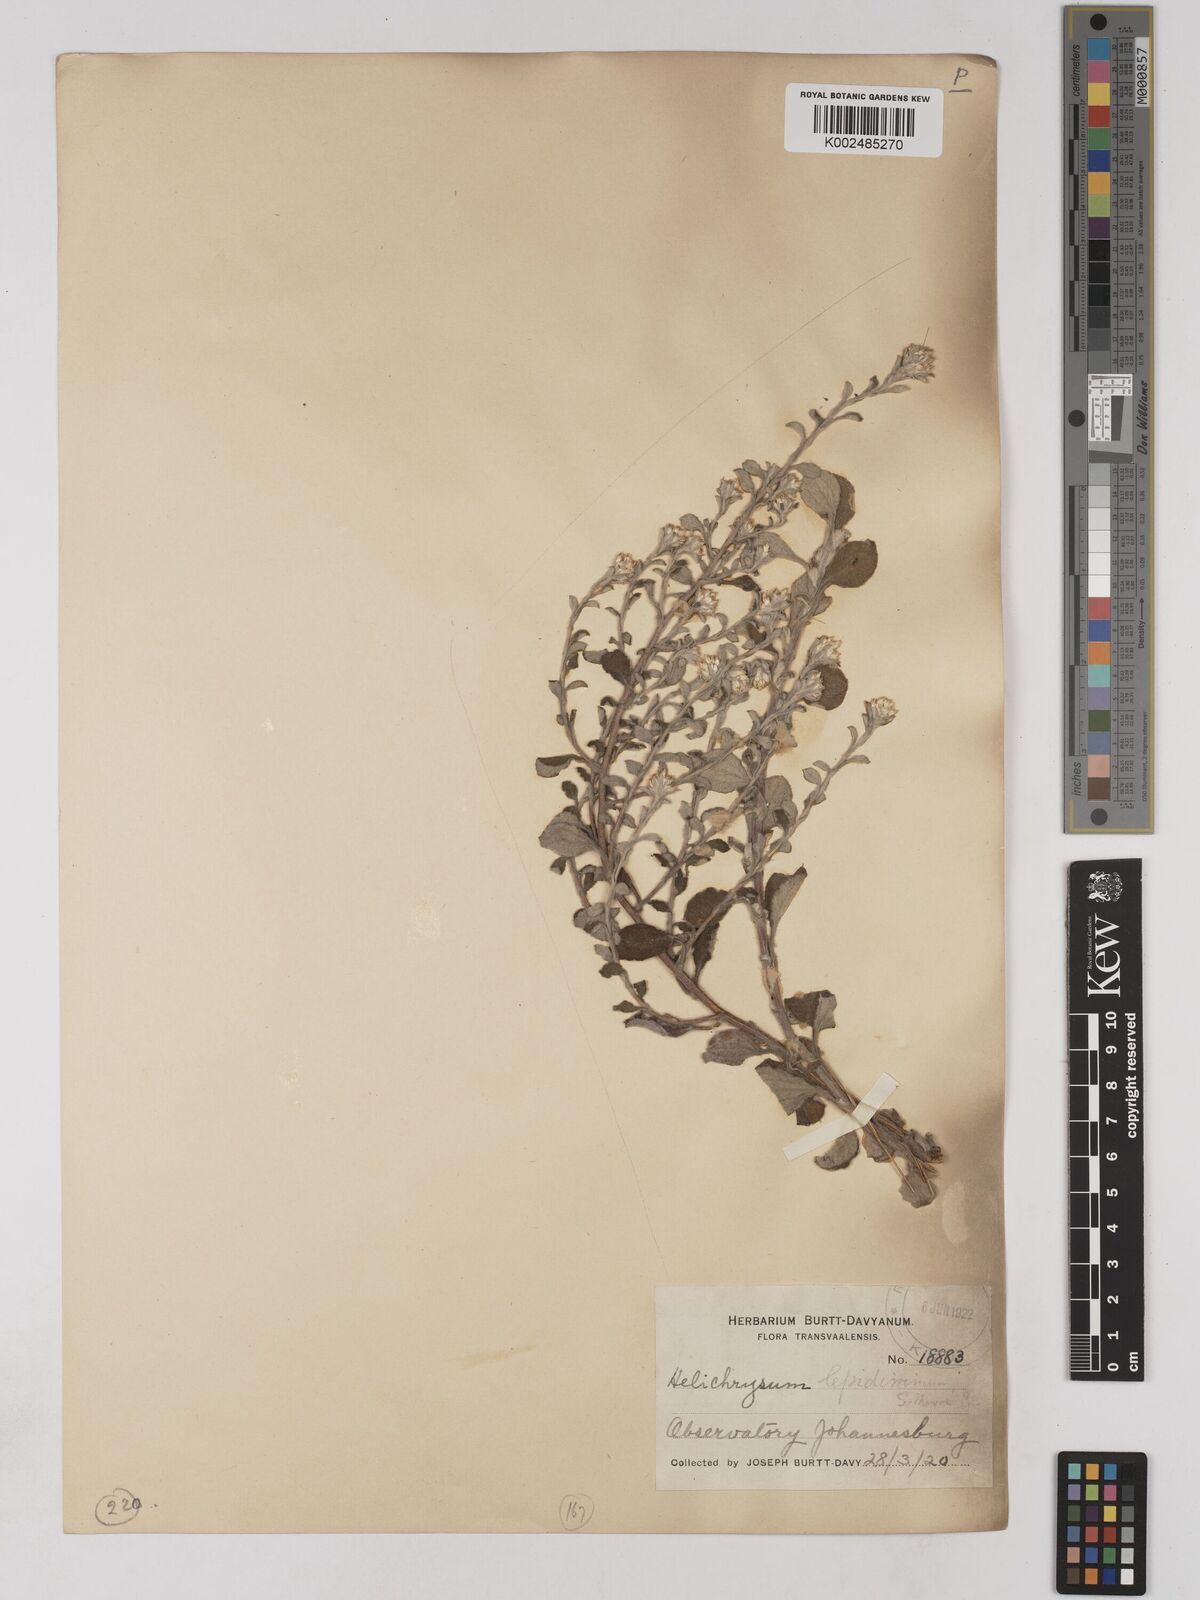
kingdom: Plantae
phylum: Tracheophyta
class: Magnoliopsida
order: Asterales
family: Asteraceae
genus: Helichrysum
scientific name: Helichrysum lepidissimum
